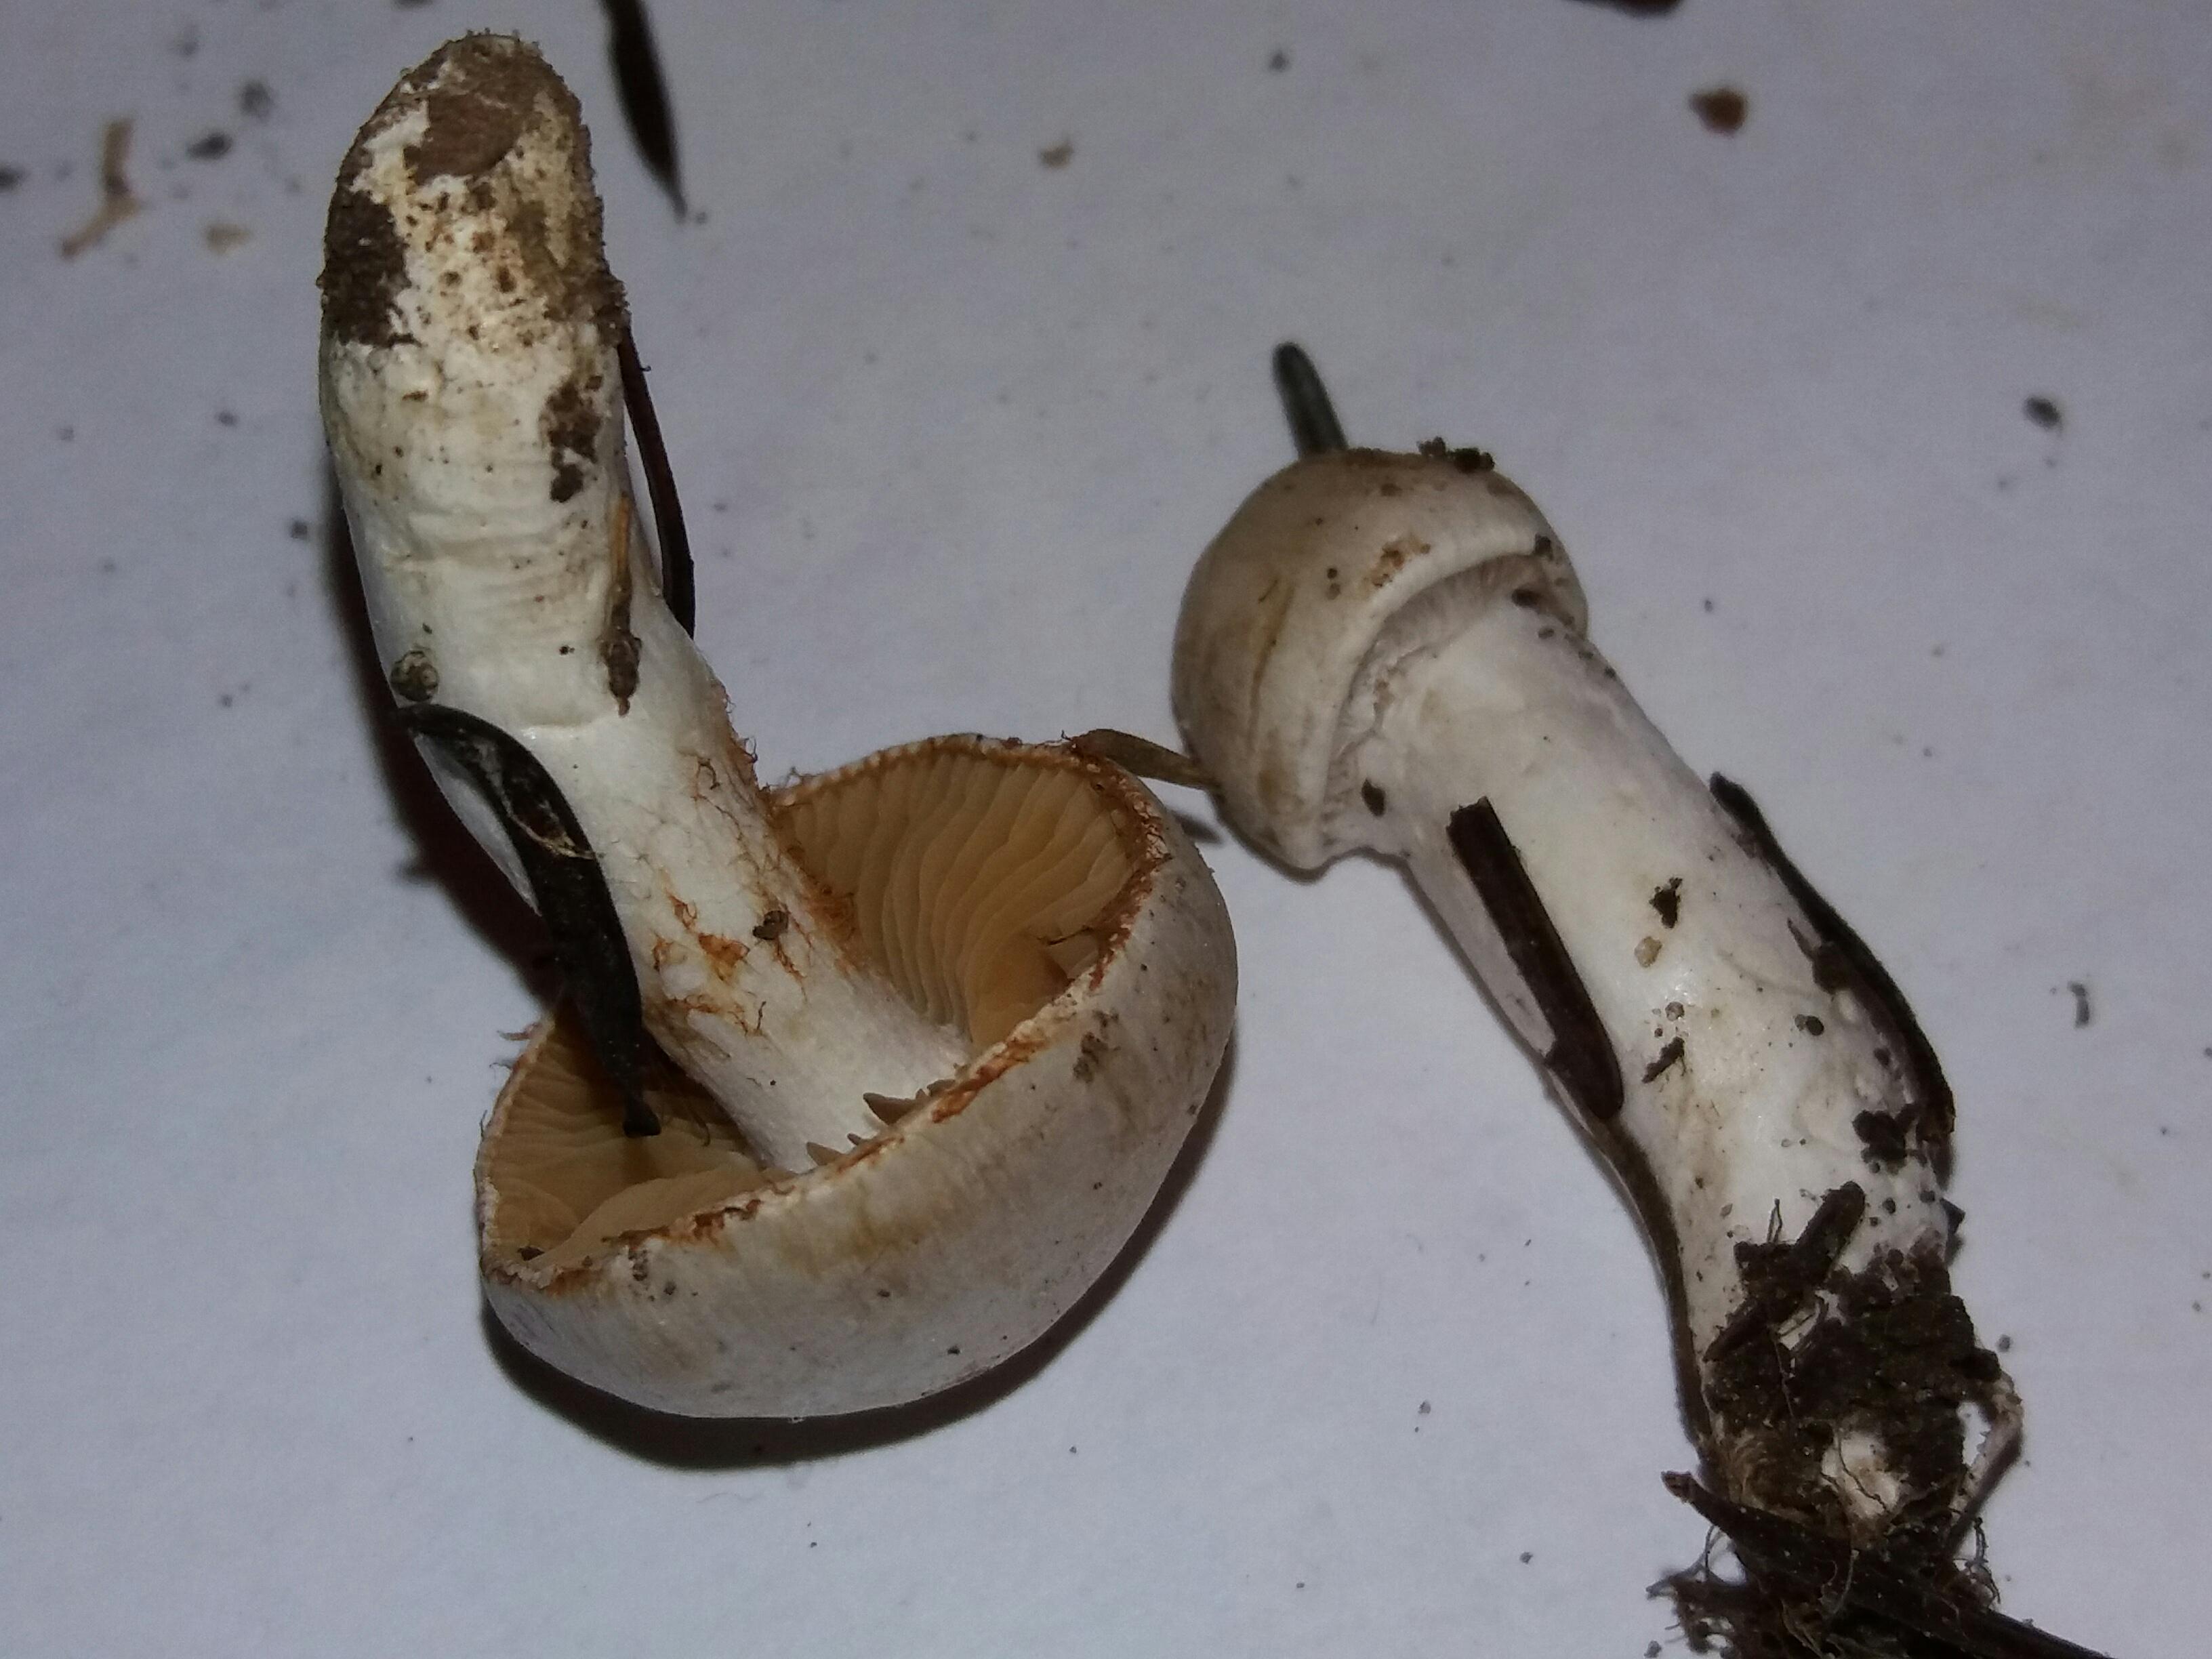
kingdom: Fungi
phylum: Basidiomycota
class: Agaricomycetes
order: Agaricales
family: Cortinariaceae
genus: Cortinarius
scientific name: Cortinarius
